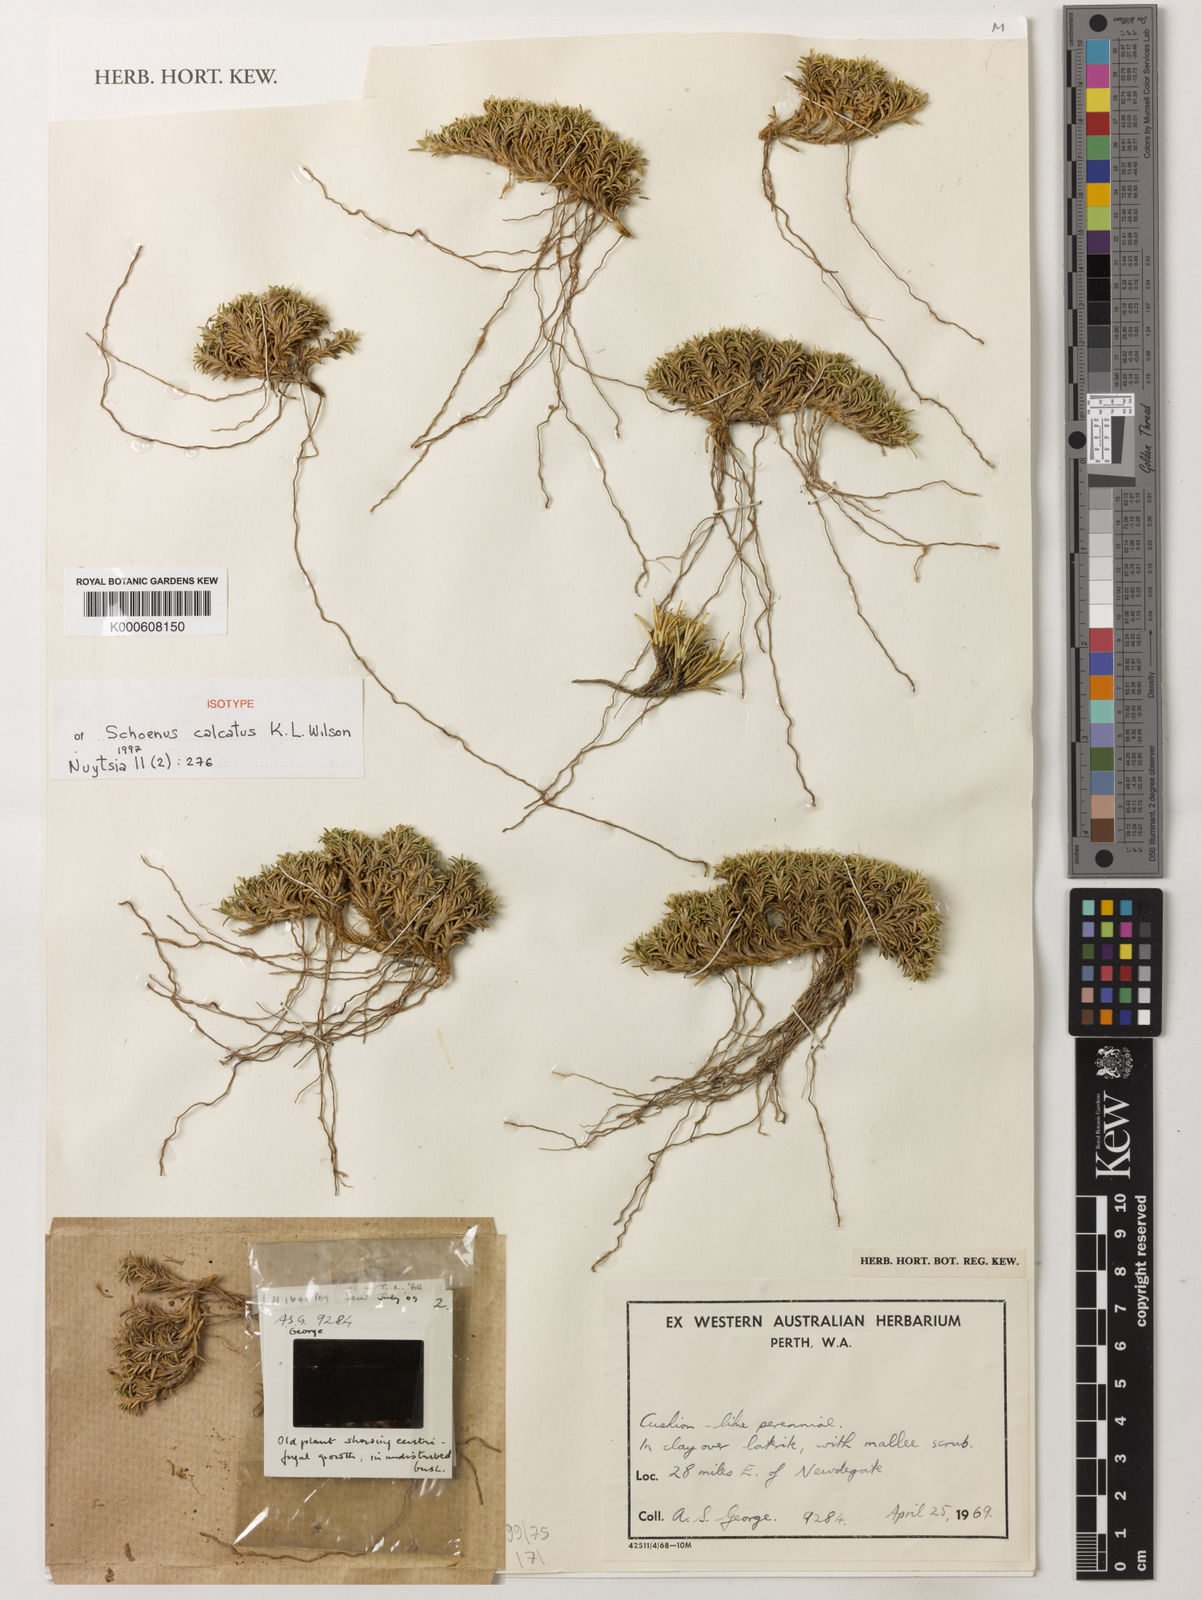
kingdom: Plantae
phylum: Tracheophyta
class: Liliopsida
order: Poales
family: Cyperaceae
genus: Schoenus
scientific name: Schoenus calcatus
